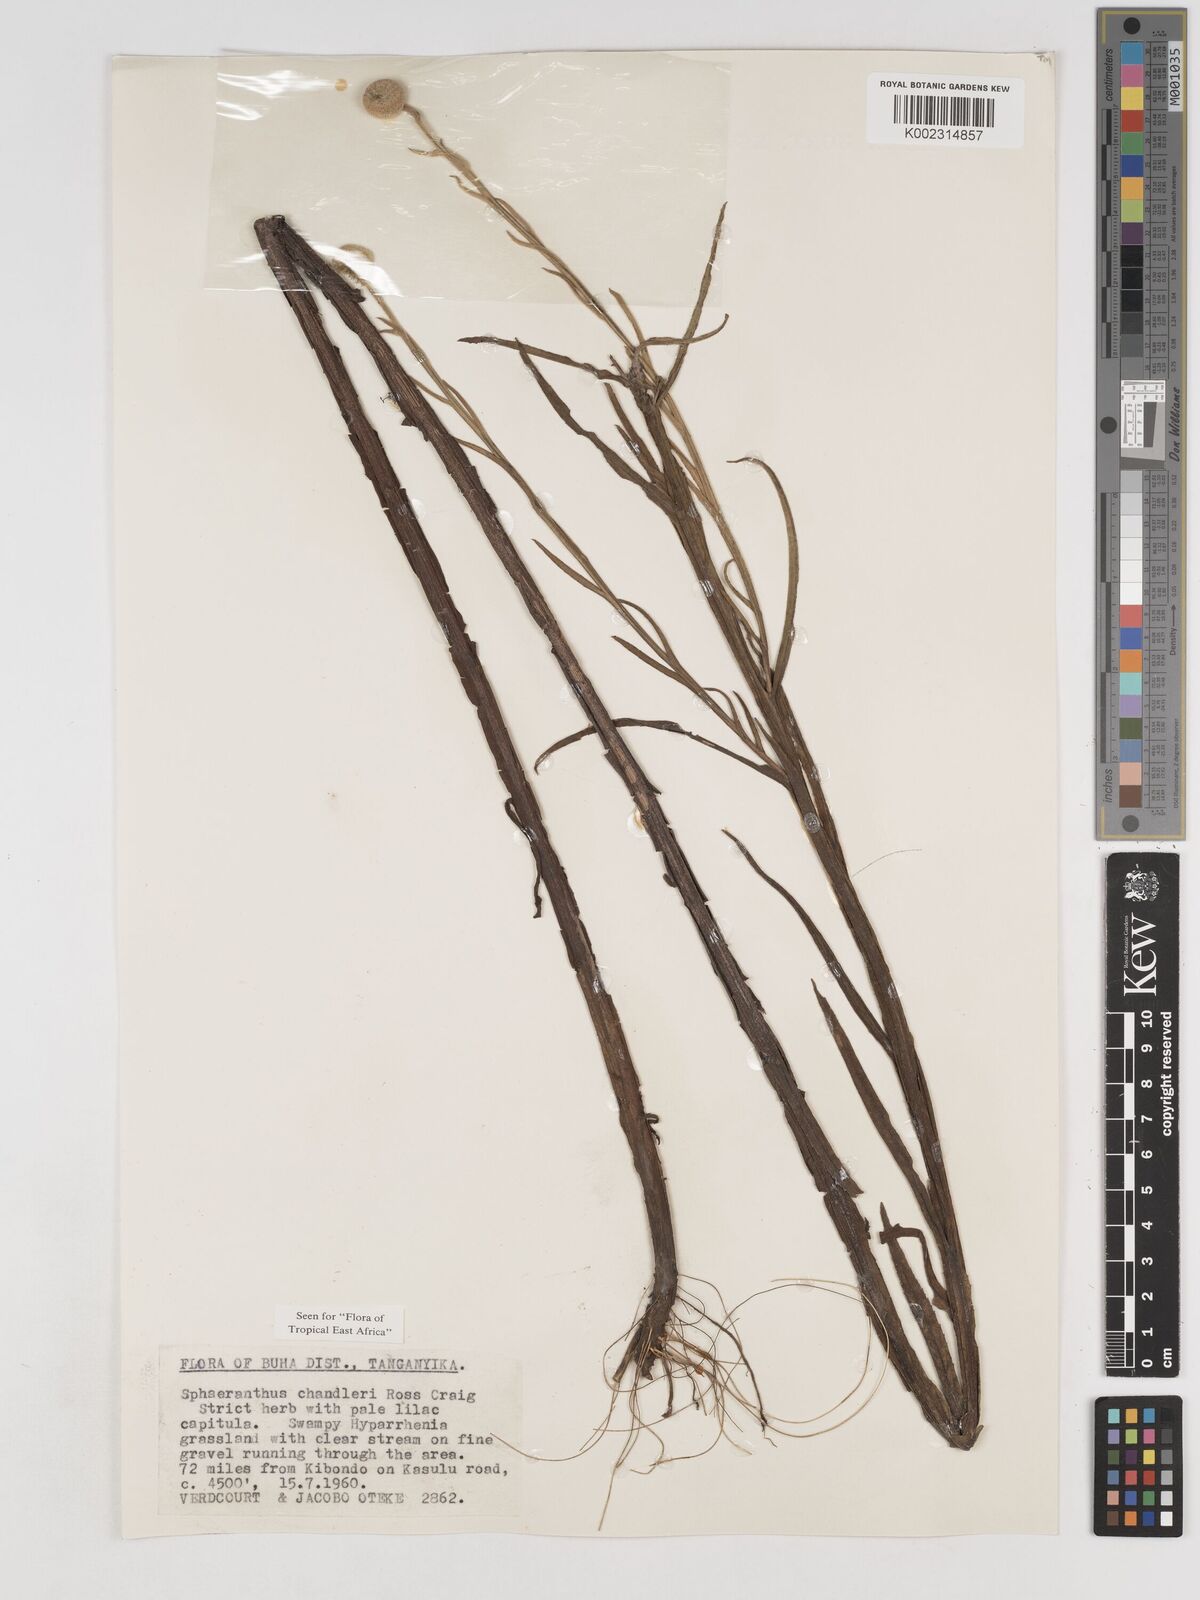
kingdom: Plantae
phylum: Tracheophyta
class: Magnoliopsida
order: Asterales
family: Asteraceae
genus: Sphaeranthus
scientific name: Sphaeranthus chandleri
